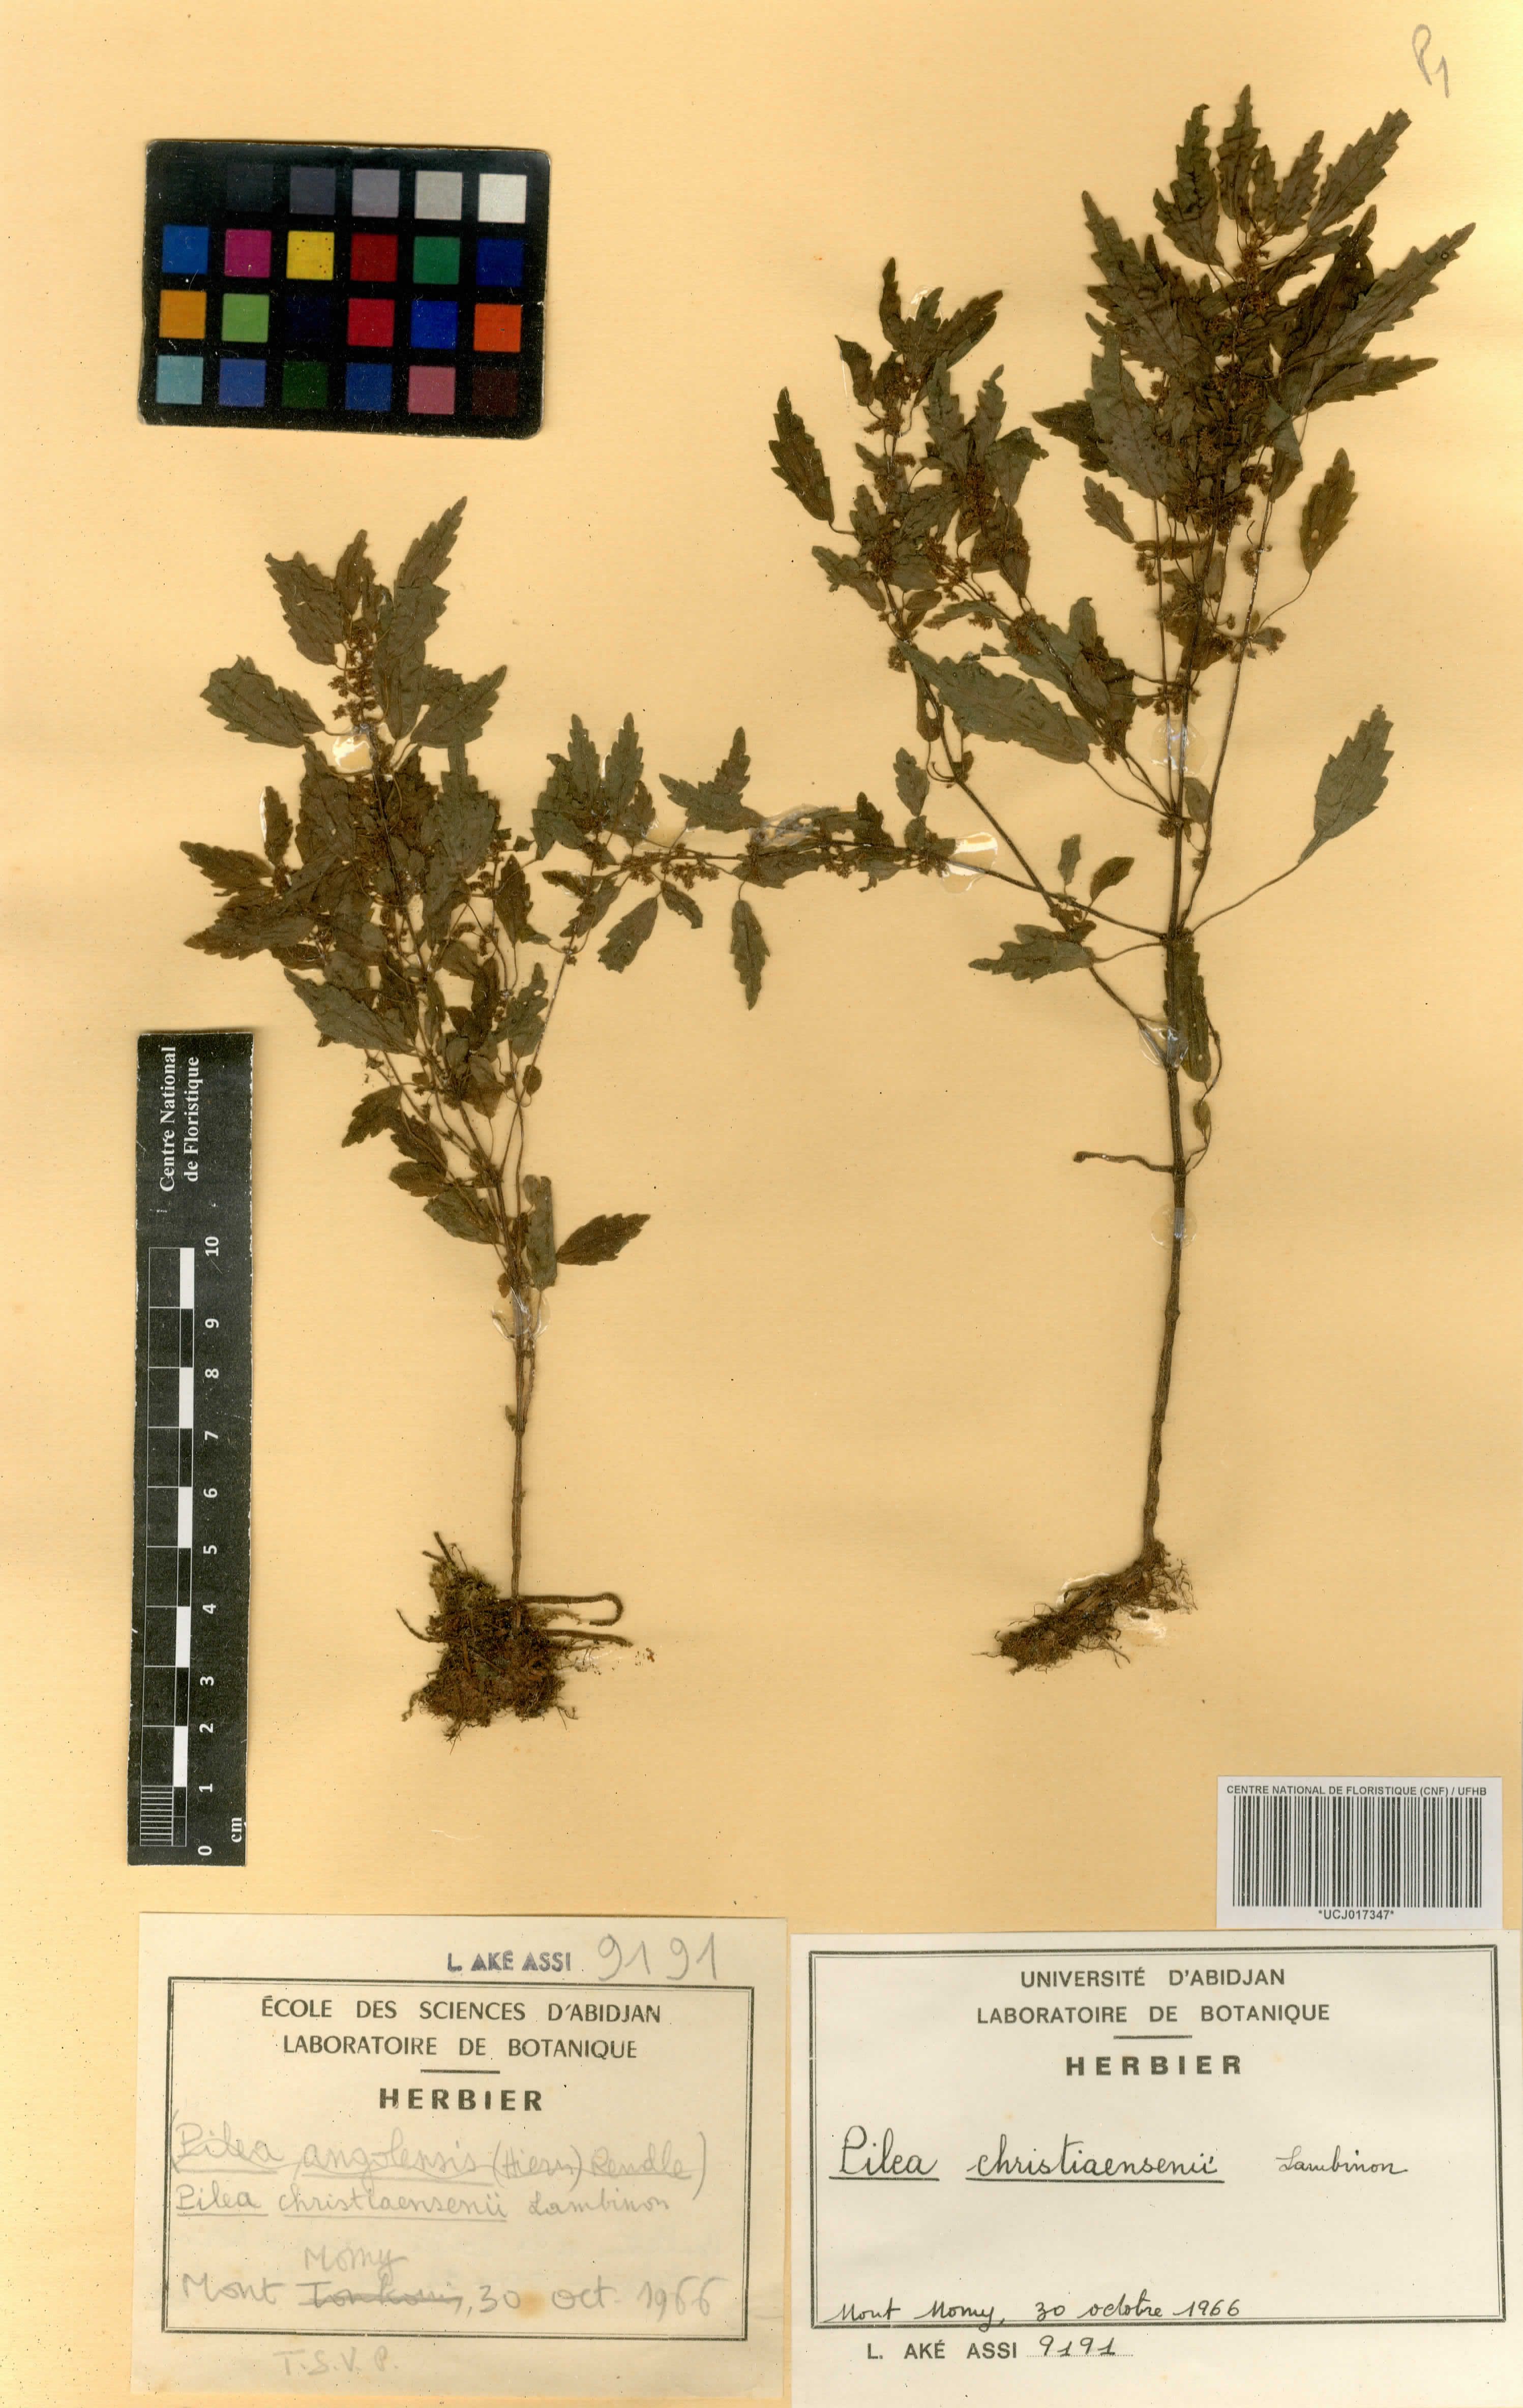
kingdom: Plantae
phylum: Tracheophyta
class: Magnoliopsida
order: Rosales
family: Urticaceae
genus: Pilea
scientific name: Pilea angolensis
